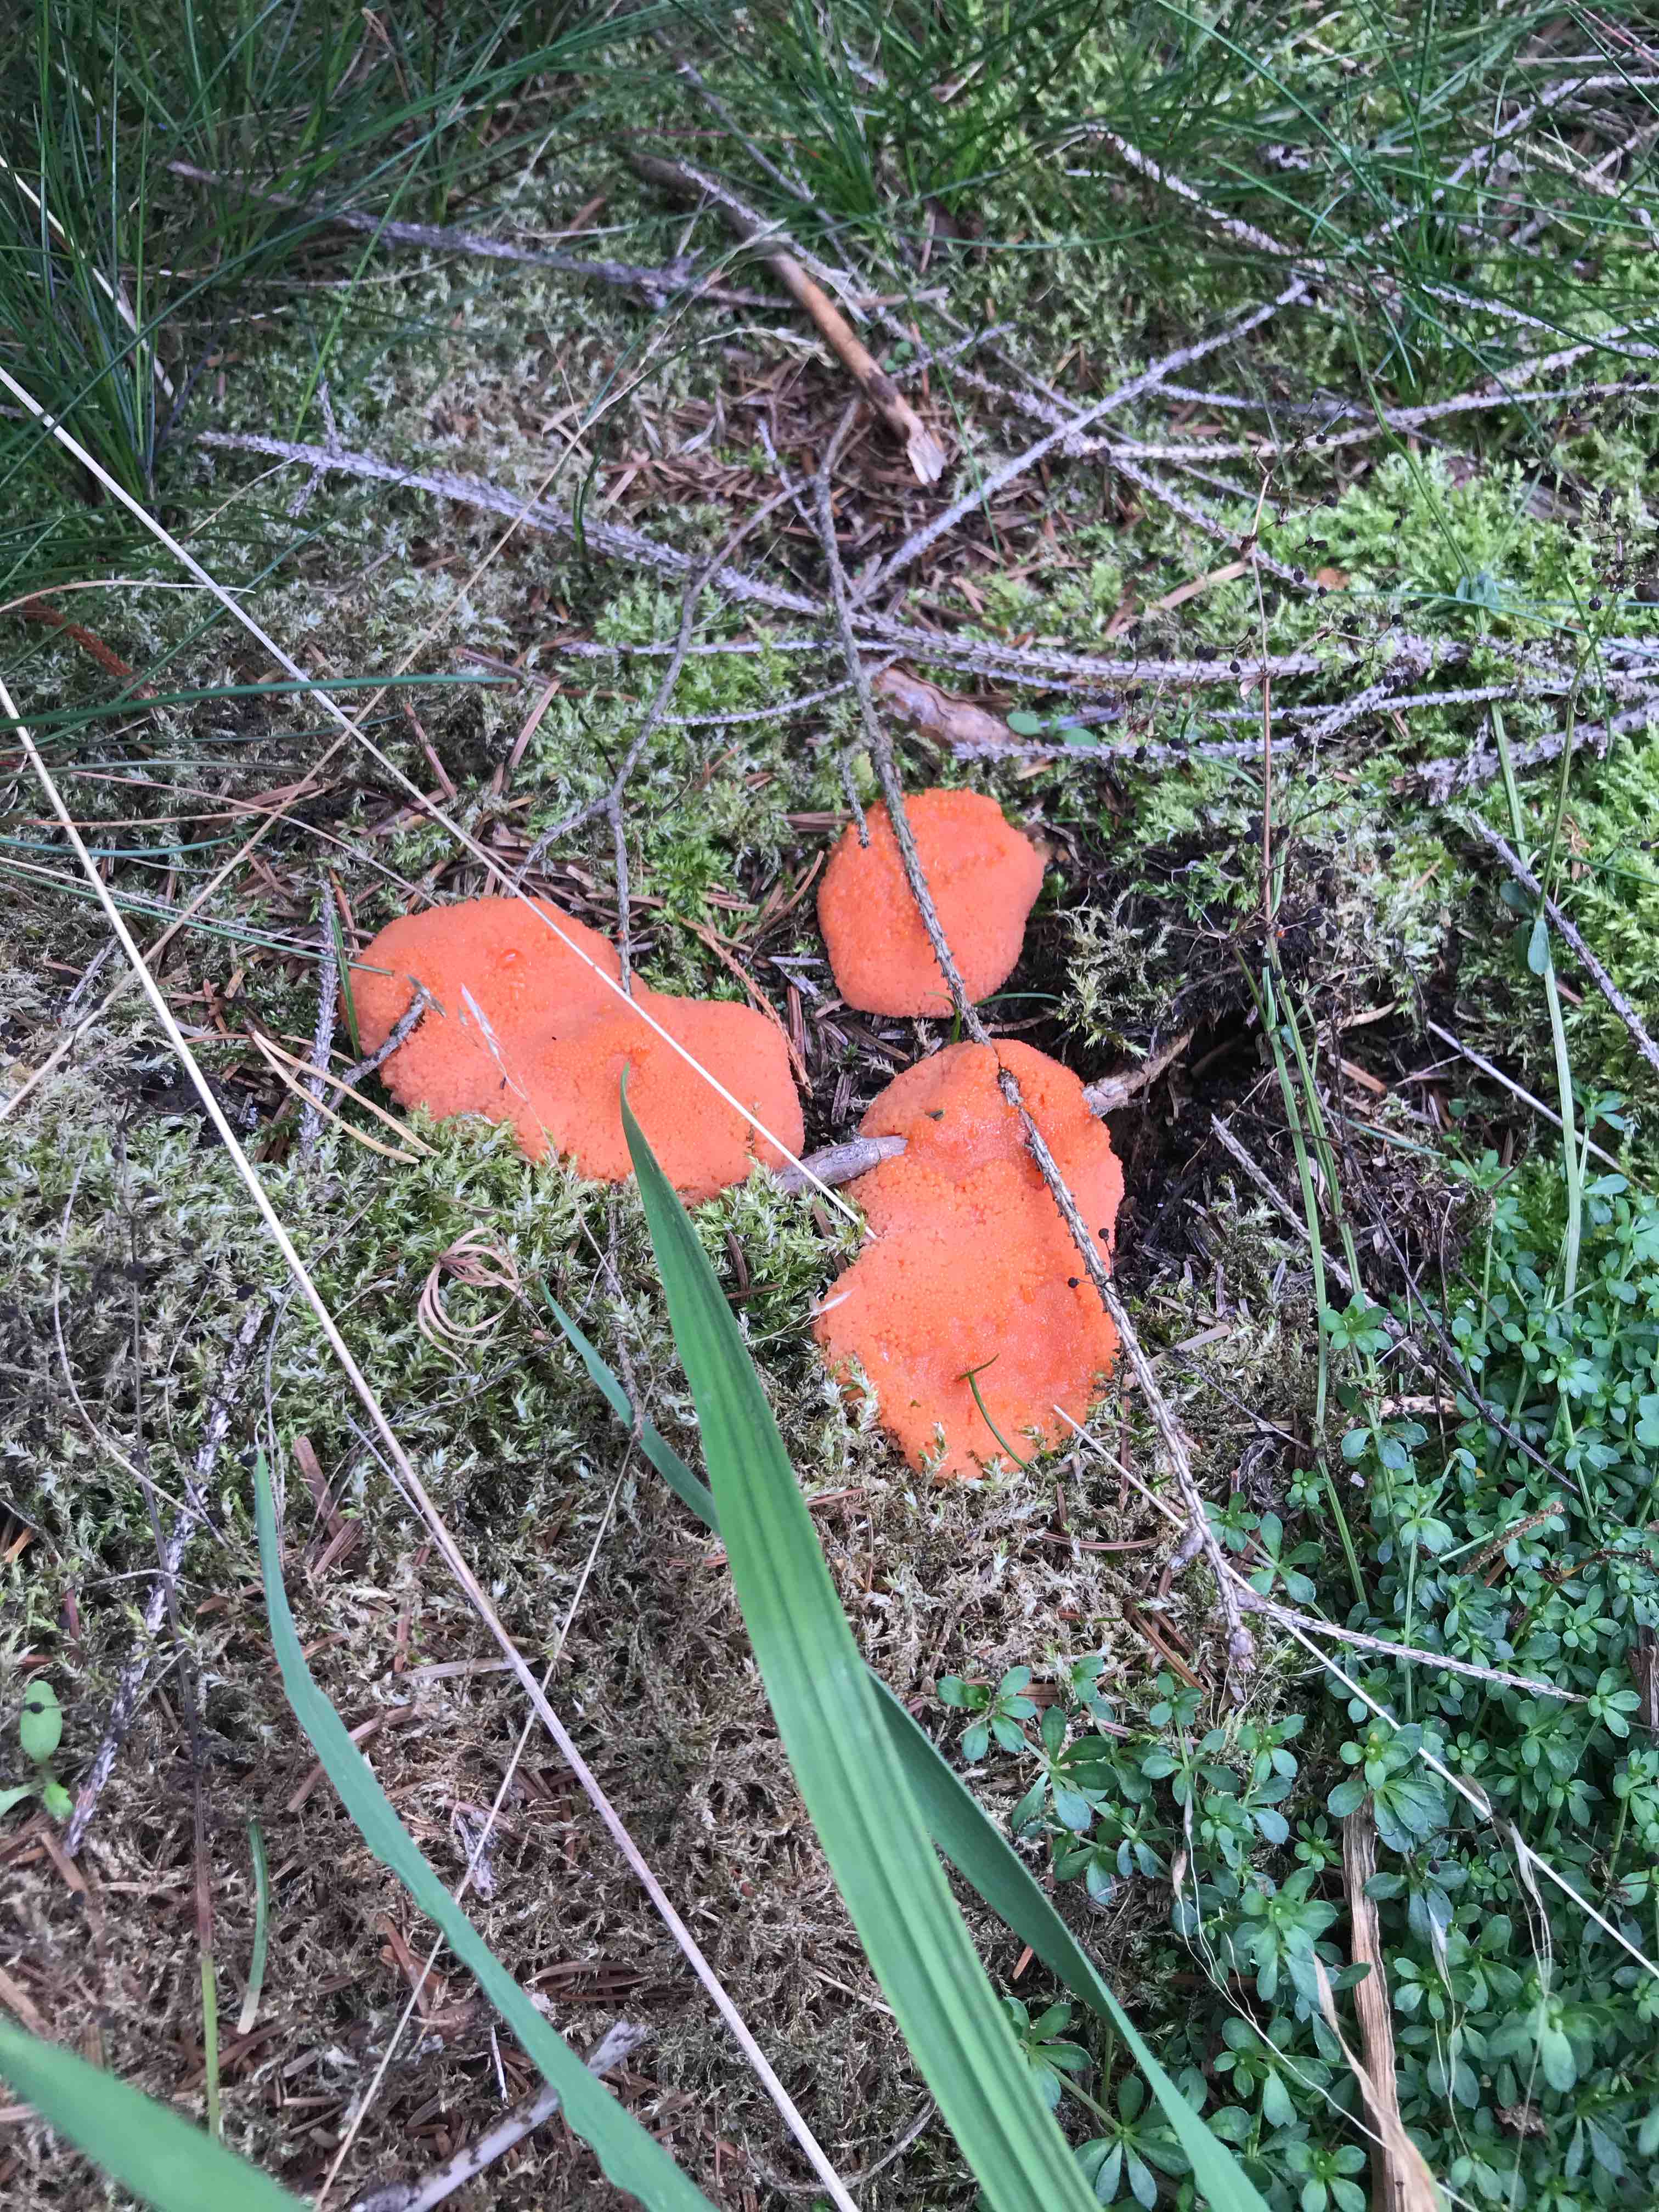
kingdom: Protozoa
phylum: Mycetozoa
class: Myxomycetes
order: Cribrariales
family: Tubiferaceae
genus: Tubifera
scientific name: Tubifera ferruginosa
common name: kanel-støvrør
